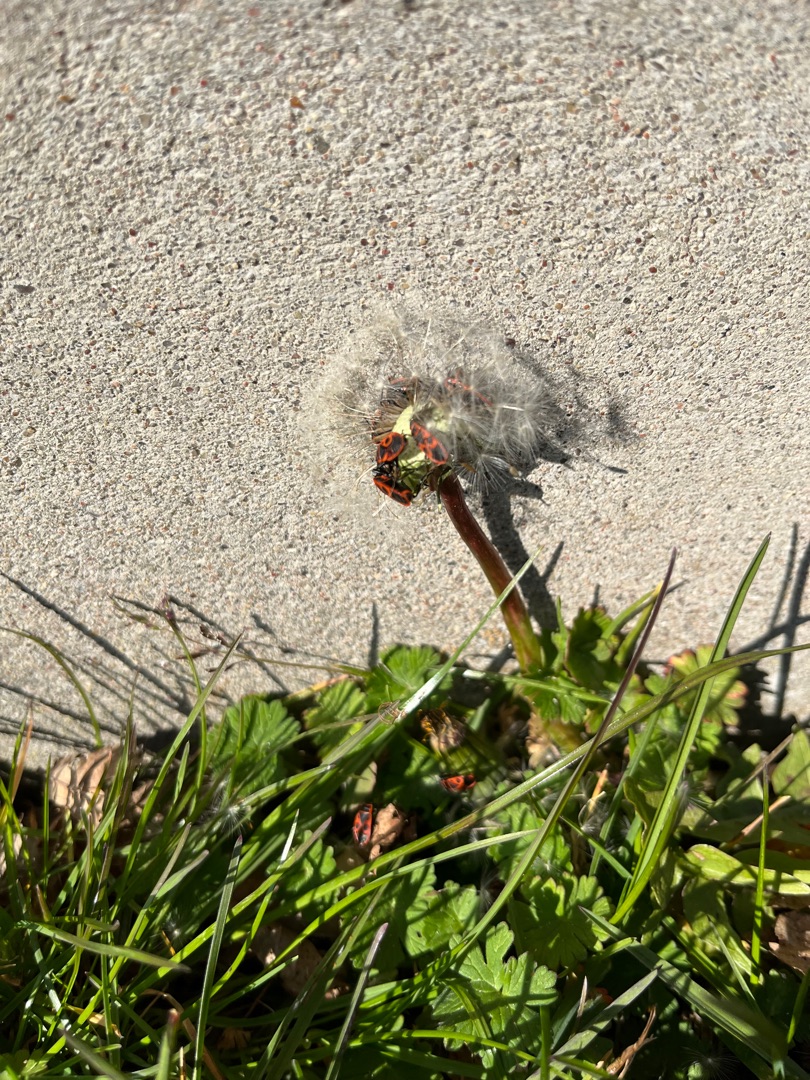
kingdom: Plantae
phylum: Tracheophyta
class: Magnoliopsida
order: Asterales
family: Asteraceae
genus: Taraxacum
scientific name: Taraxacum
